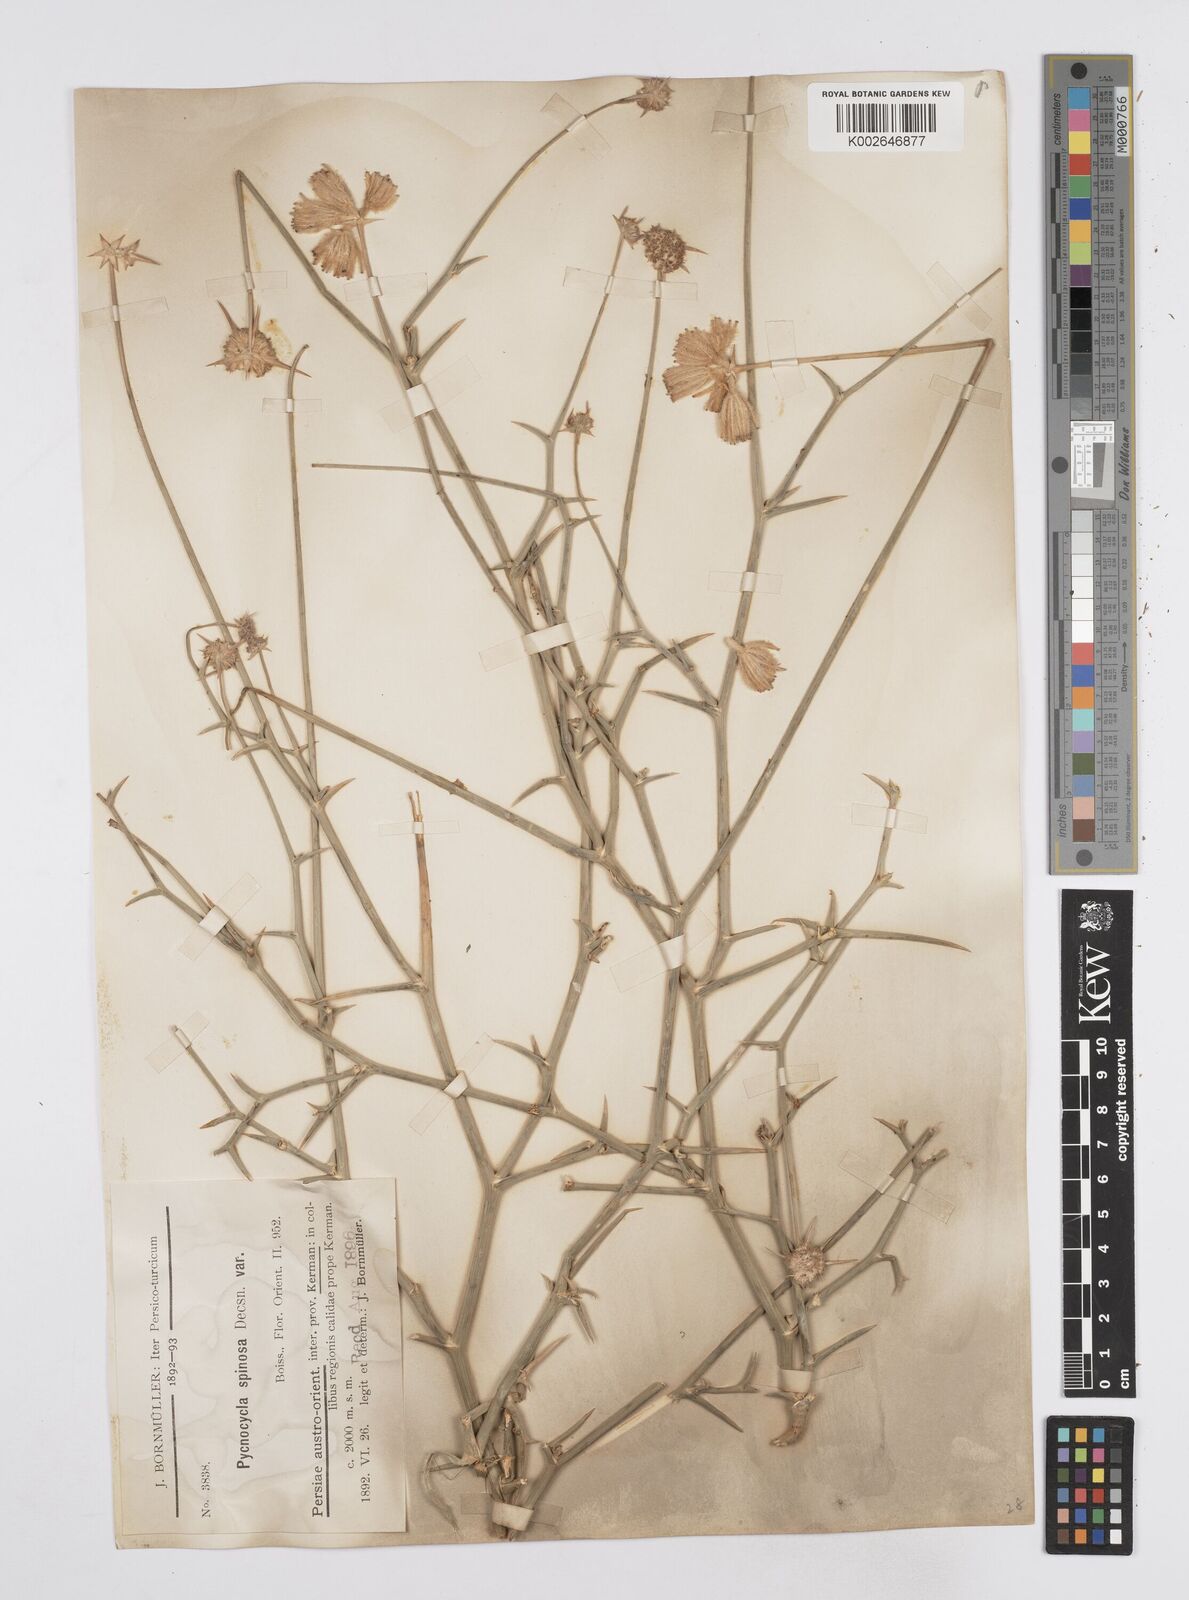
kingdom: Plantae
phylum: Tracheophyta
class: Magnoliopsida
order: Apiales
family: Apiaceae
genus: Pycnocycla
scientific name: Pycnocycla spinosa
